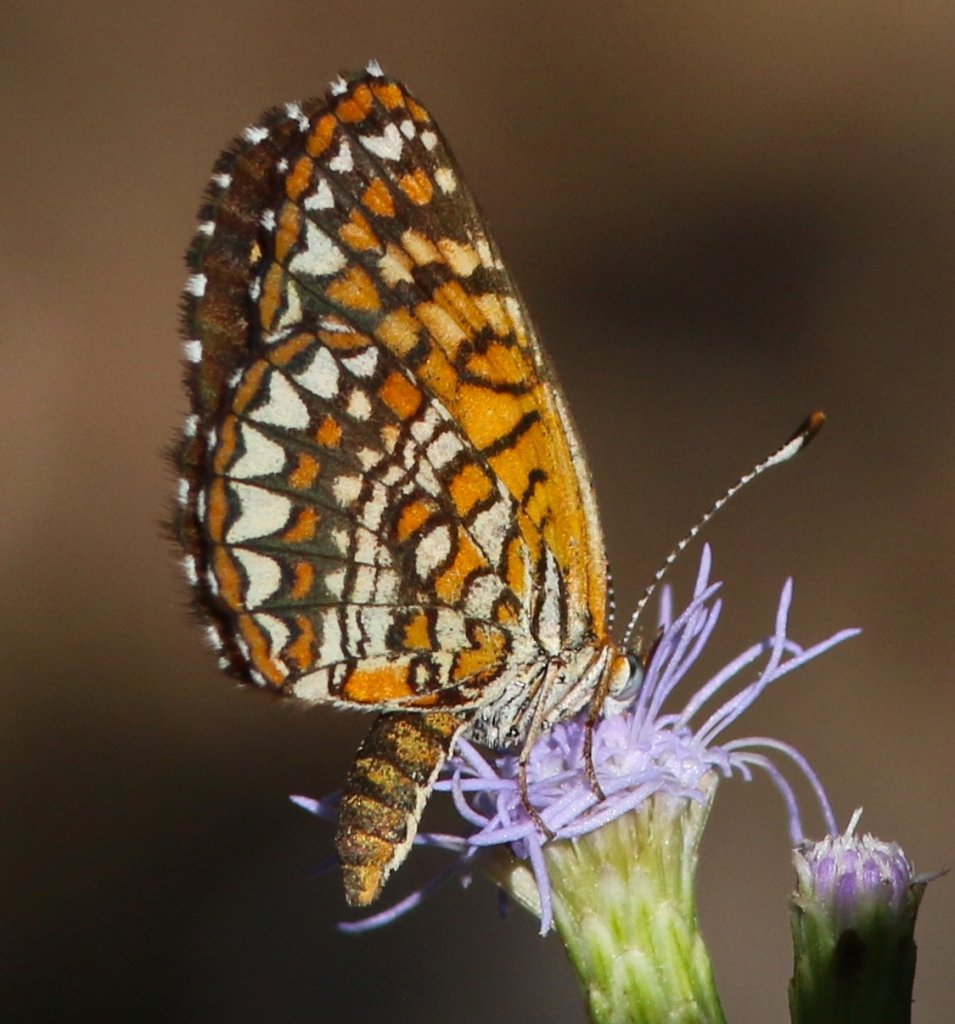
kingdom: Animalia
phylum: Arthropoda
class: Insecta
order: Lepidoptera
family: Nymphalidae
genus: Texola
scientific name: Texola elada
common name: Elada Checkerspot
